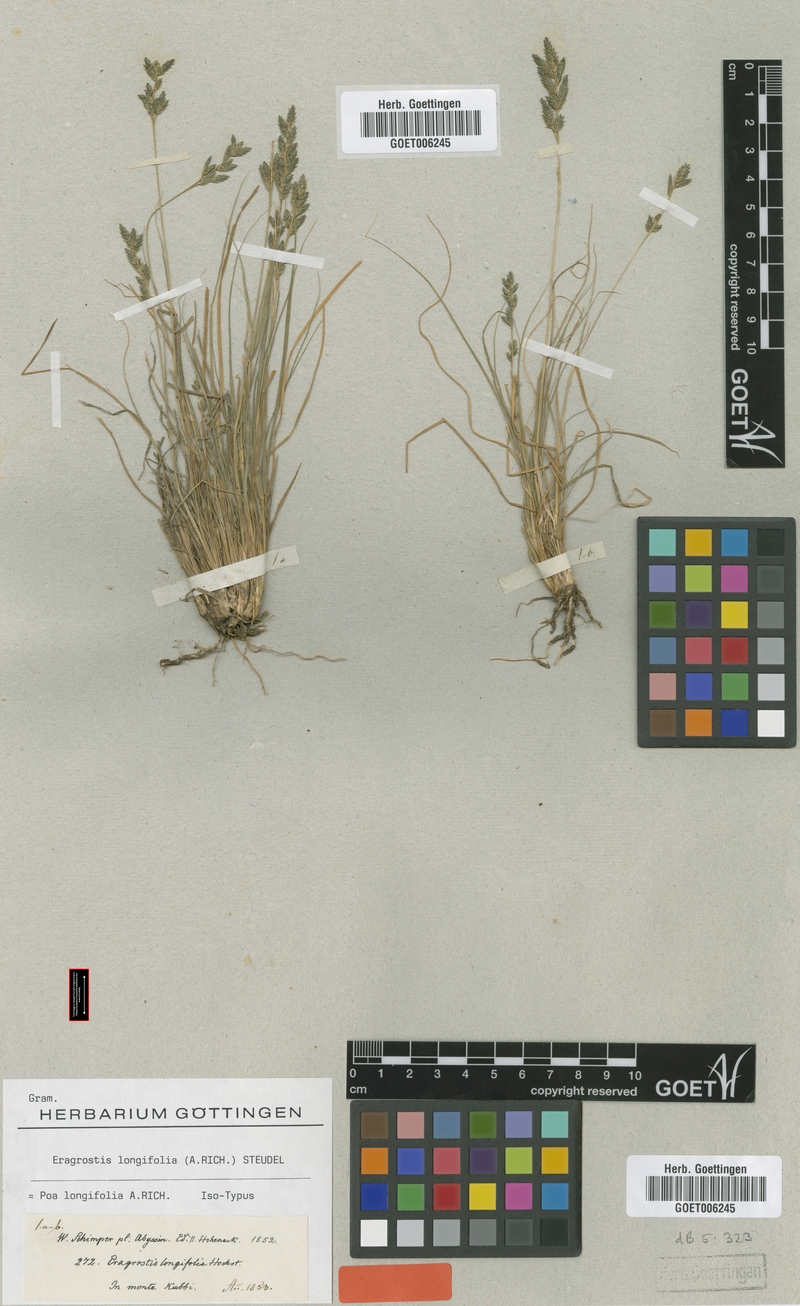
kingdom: Plantae
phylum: Tracheophyta
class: Liliopsida
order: Poales
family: Poaceae
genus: Eragrostis
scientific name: Eragrostis longifolia
